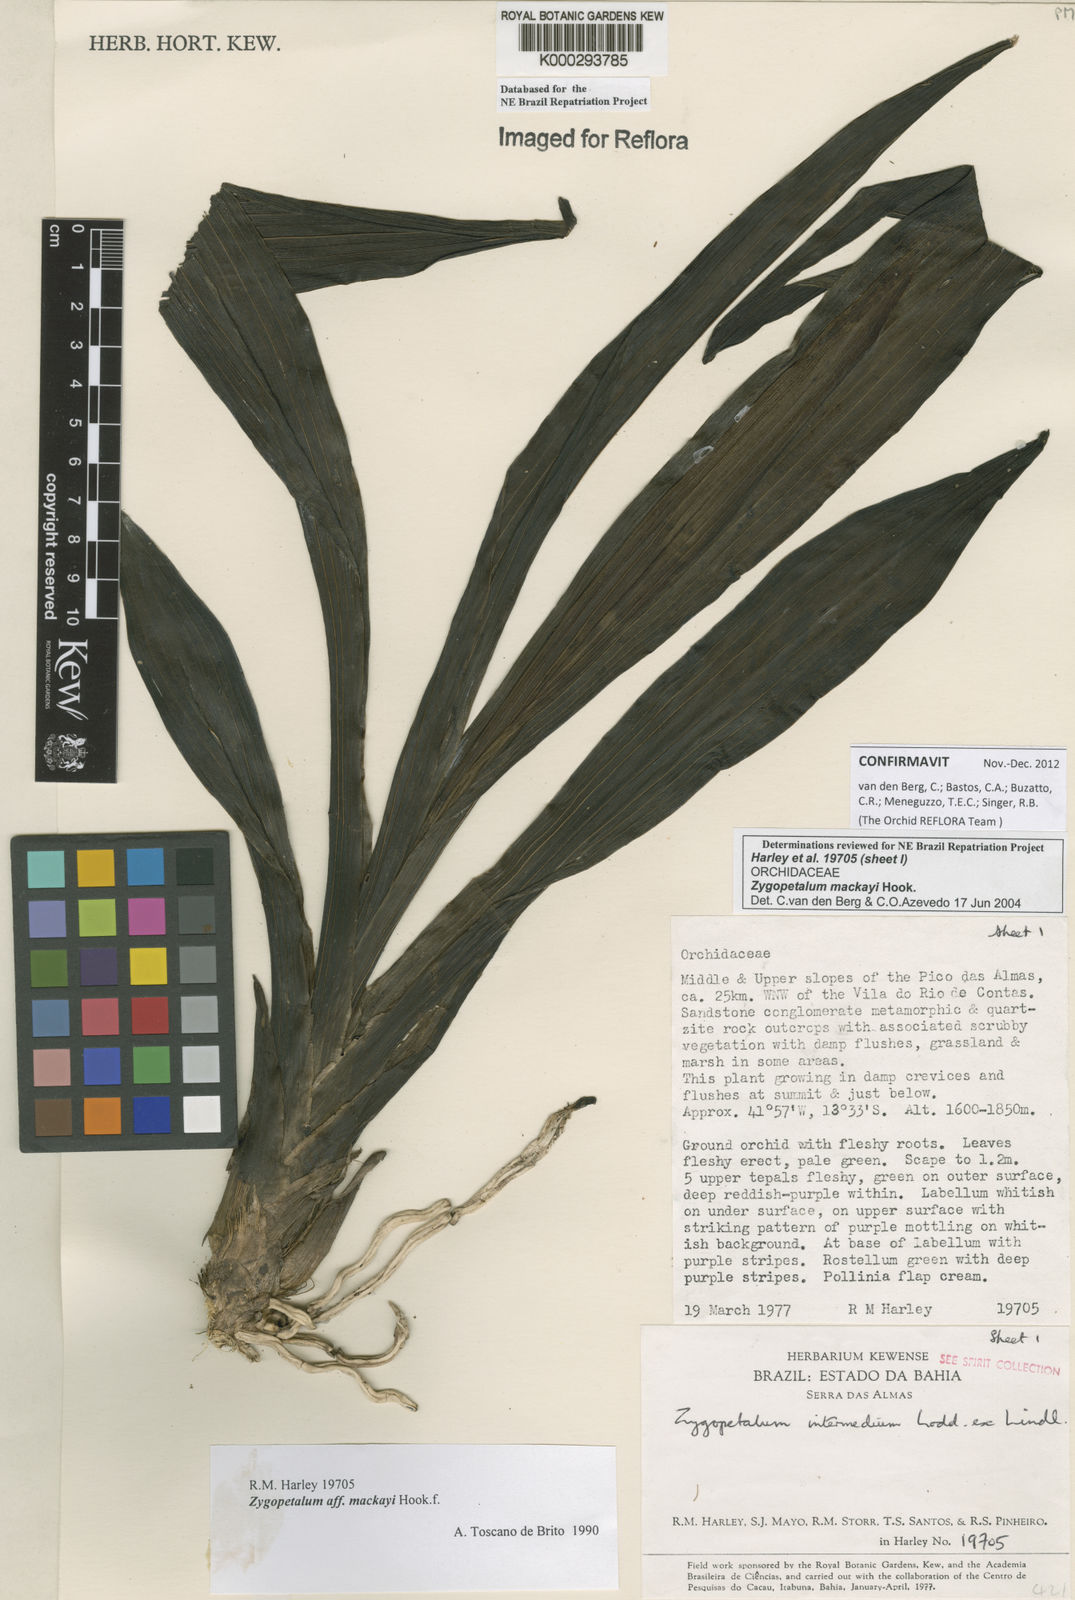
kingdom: Plantae
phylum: Tracheophyta
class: Liliopsida
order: Asparagales
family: Orchidaceae
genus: Zygopetalum
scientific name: Zygopetalum maculatum
